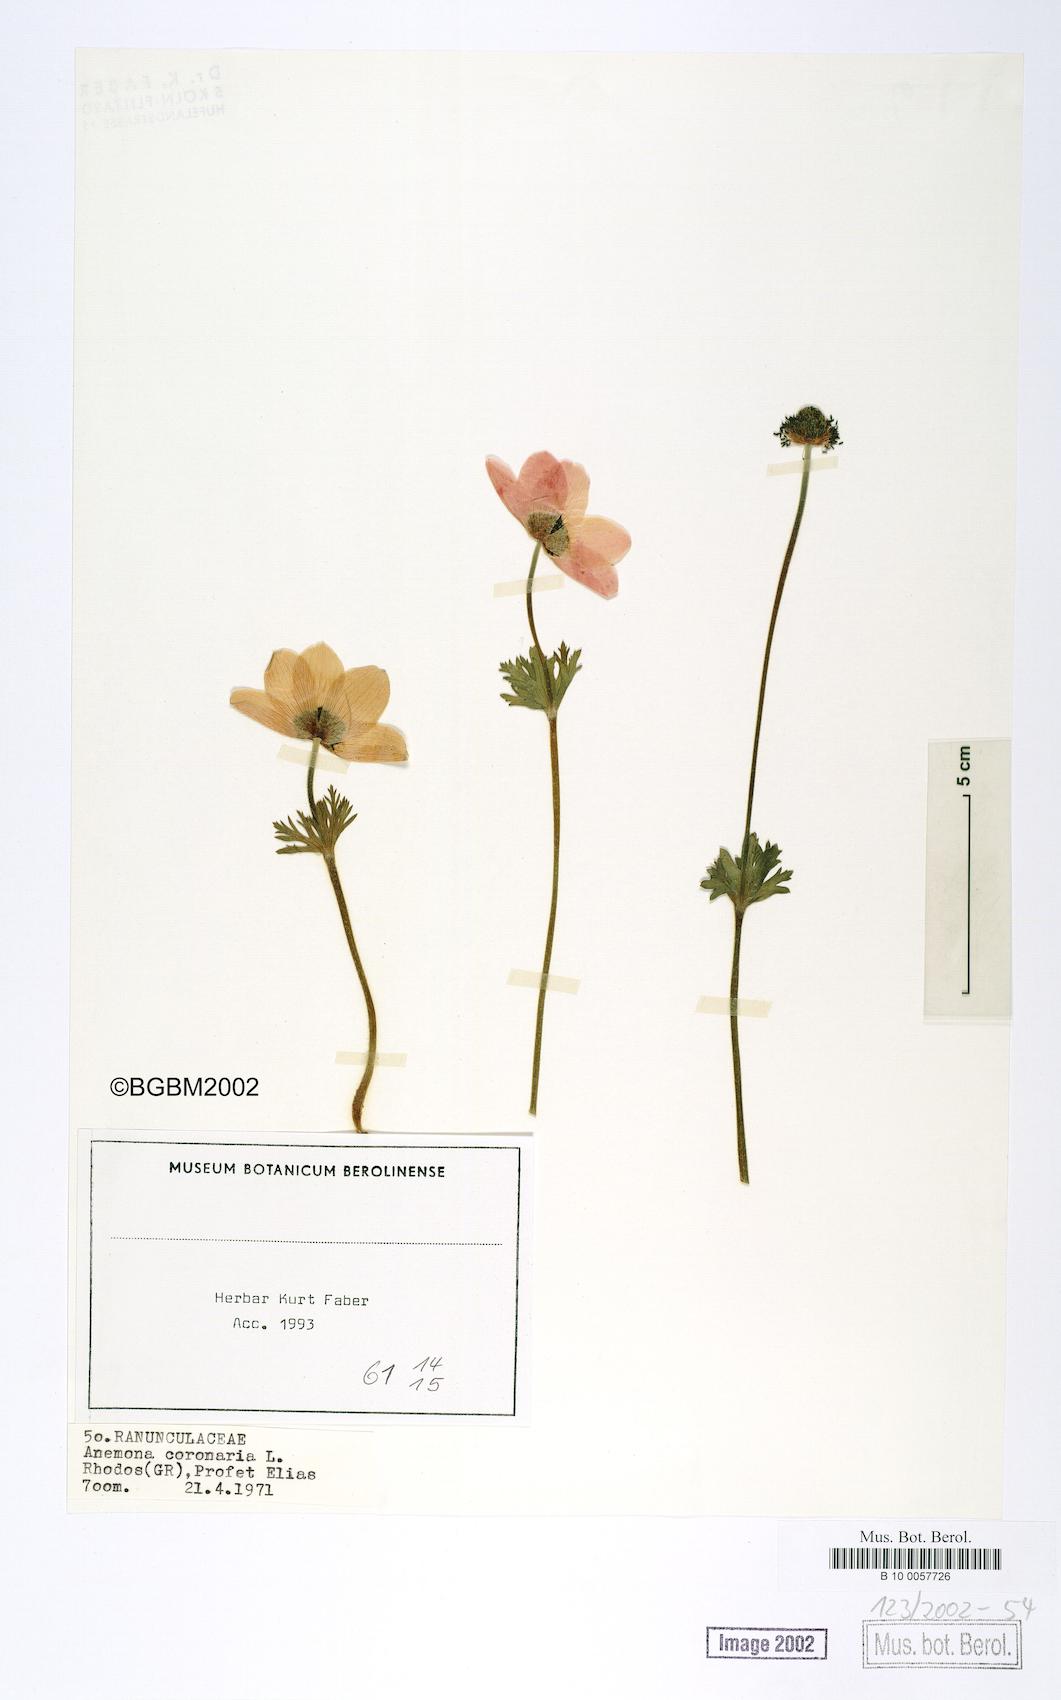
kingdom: Plantae
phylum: Tracheophyta
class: Magnoliopsida
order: Ranunculales
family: Ranunculaceae
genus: Anemone
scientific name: Anemone coronaria
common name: Poppy anemone
